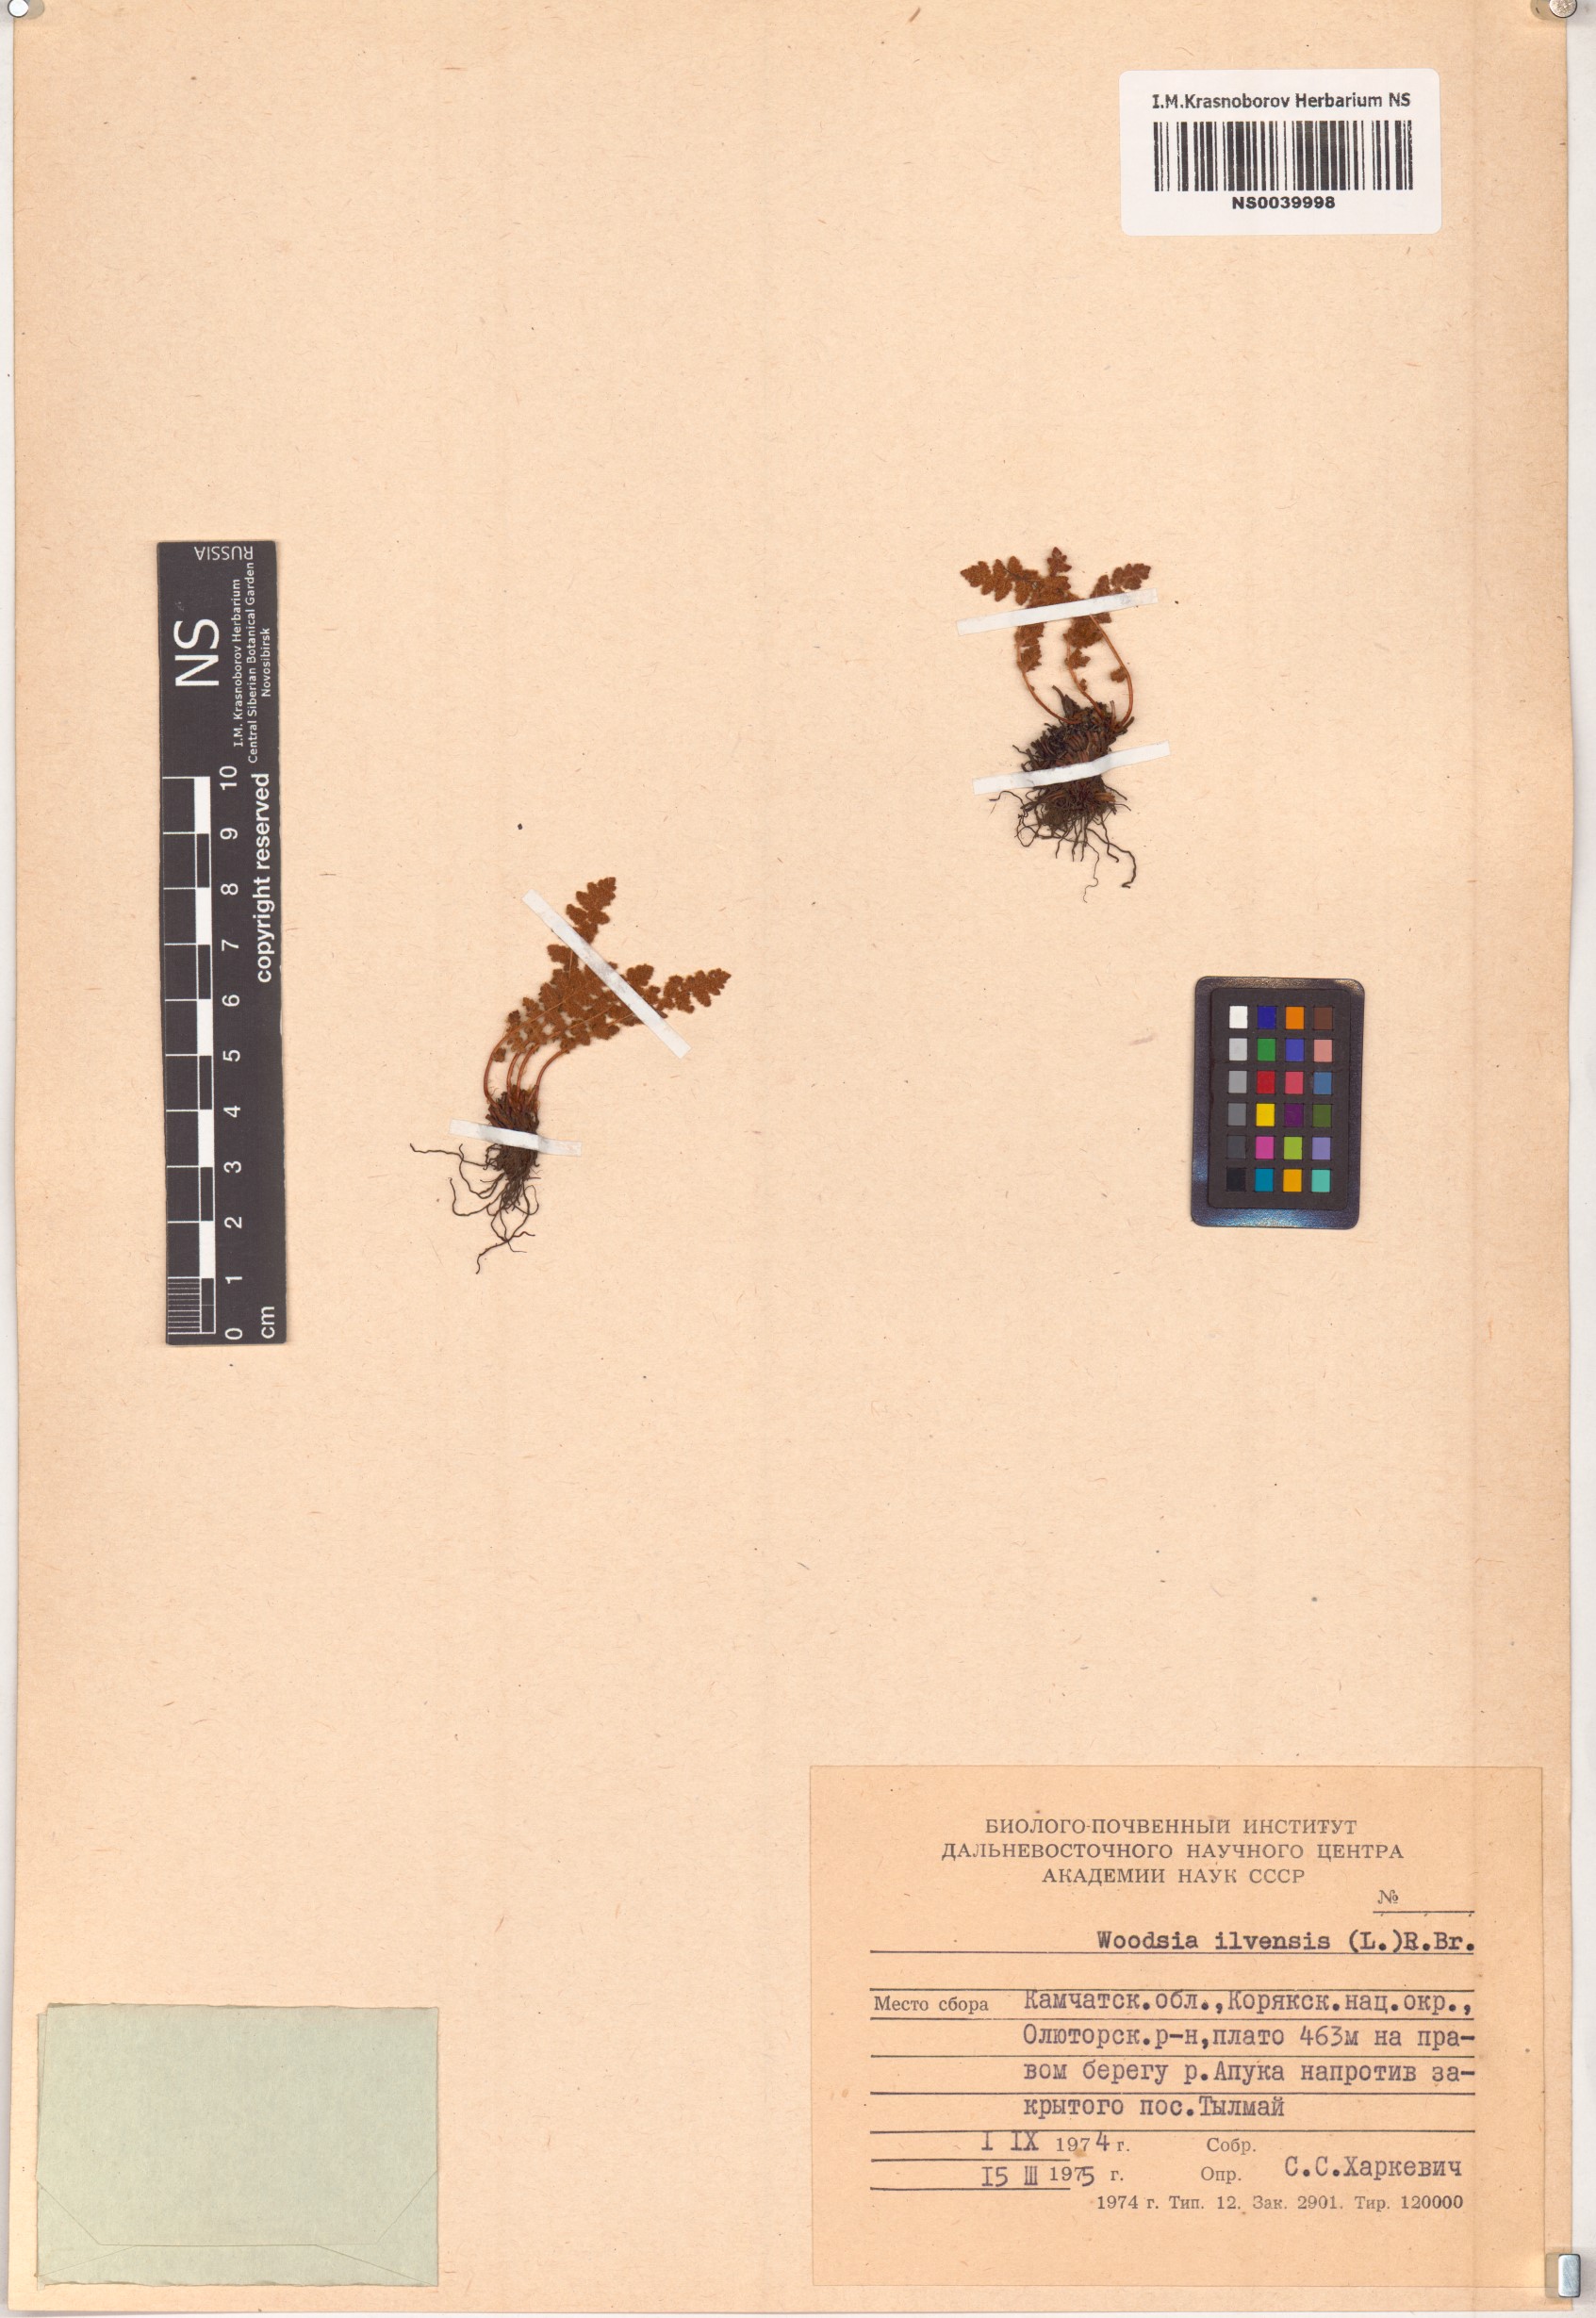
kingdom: Plantae
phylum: Tracheophyta
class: Polypodiopsida
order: Polypodiales
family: Woodsiaceae
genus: Woodsia
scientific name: Woodsia ilvensis
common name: Fragrant woodsia
